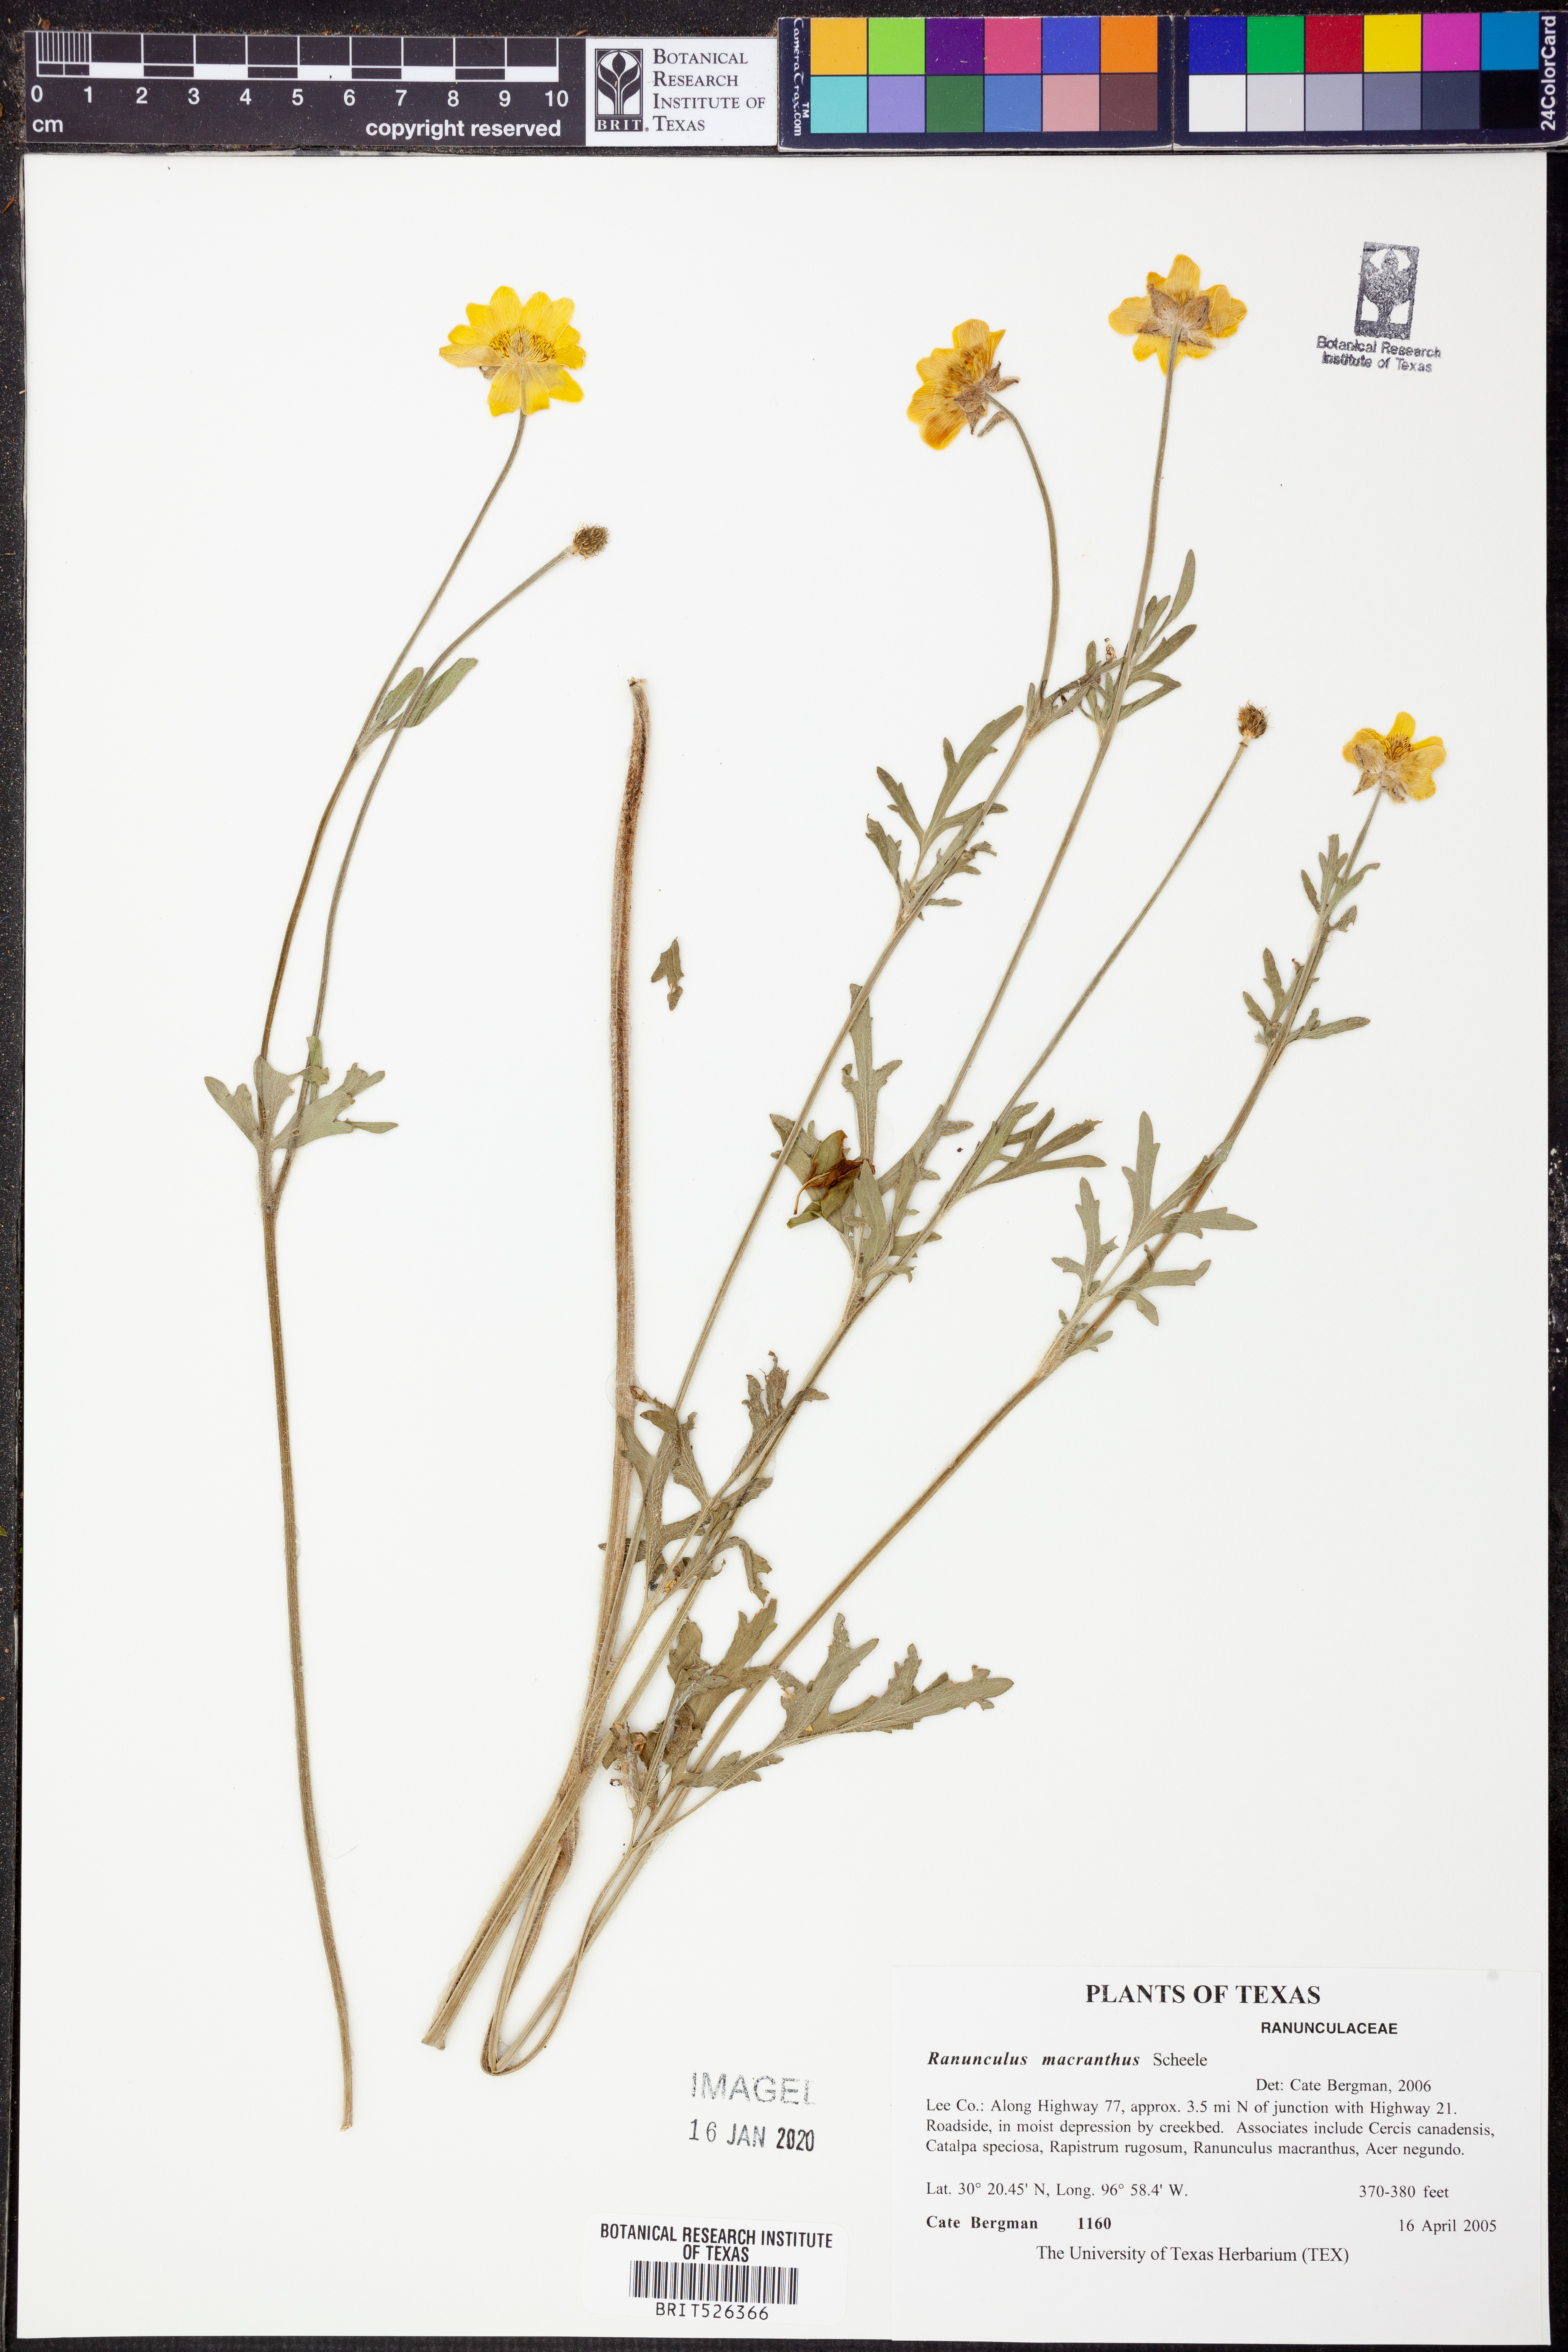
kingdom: Plantae
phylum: Tracheophyta
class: Magnoliopsida
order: Ranunculales
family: Ranunculaceae
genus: Ranunculus
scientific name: Ranunculus macranthus
